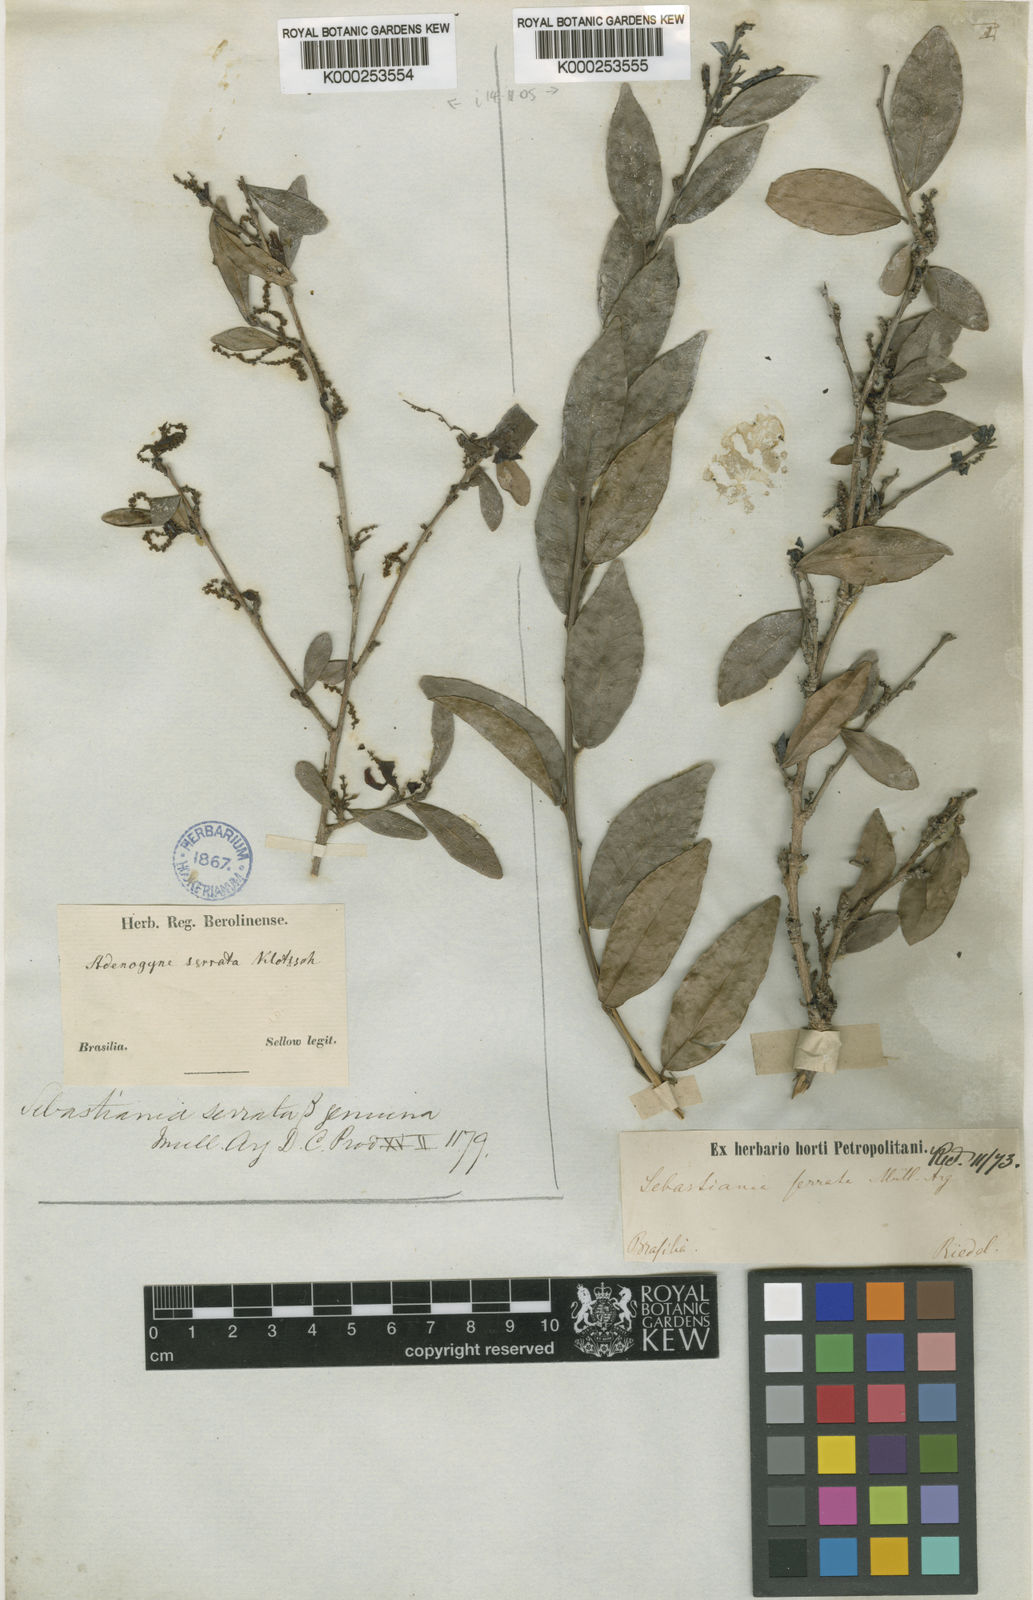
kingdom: Plantae
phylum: Tracheophyta
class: Magnoliopsida
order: Malpighiales
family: Euphorbiaceae
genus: Gymnanthes
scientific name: Gymnanthes
